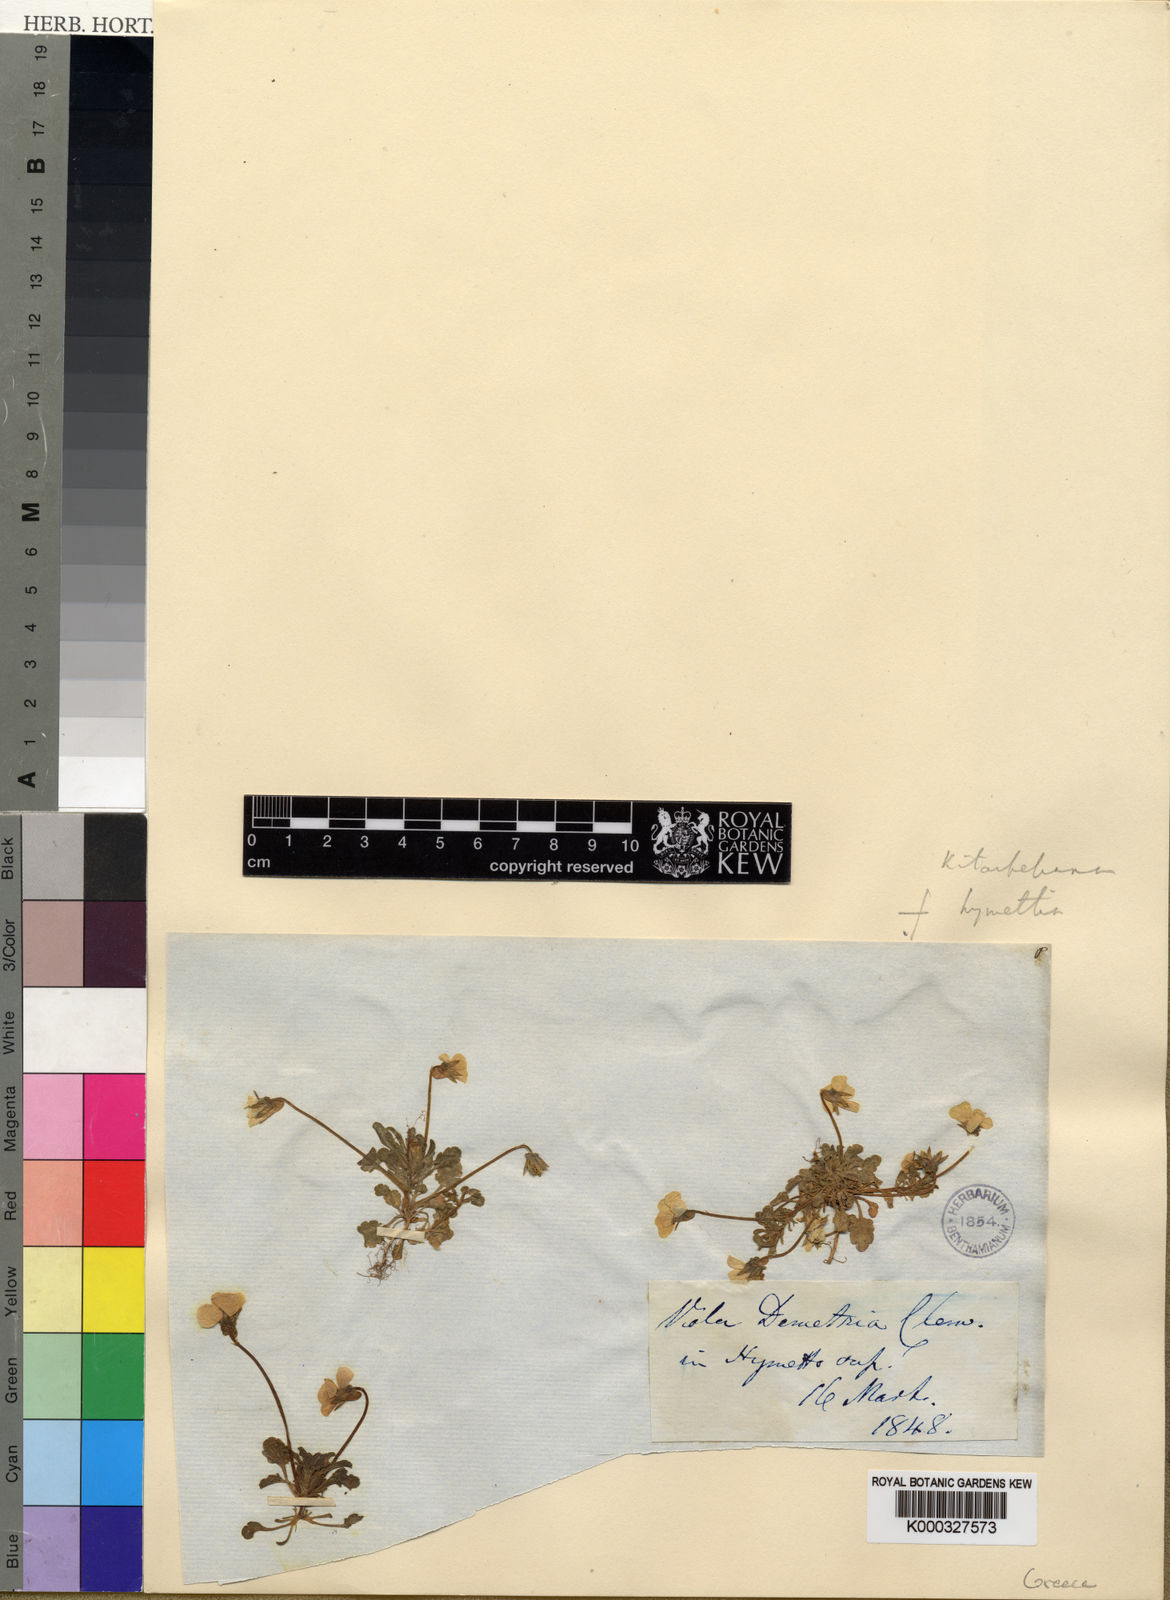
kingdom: Plantae
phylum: Tracheophyta
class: Magnoliopsida
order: Malpighiales
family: Violaceae
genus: Viola
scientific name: Viola hymettia
